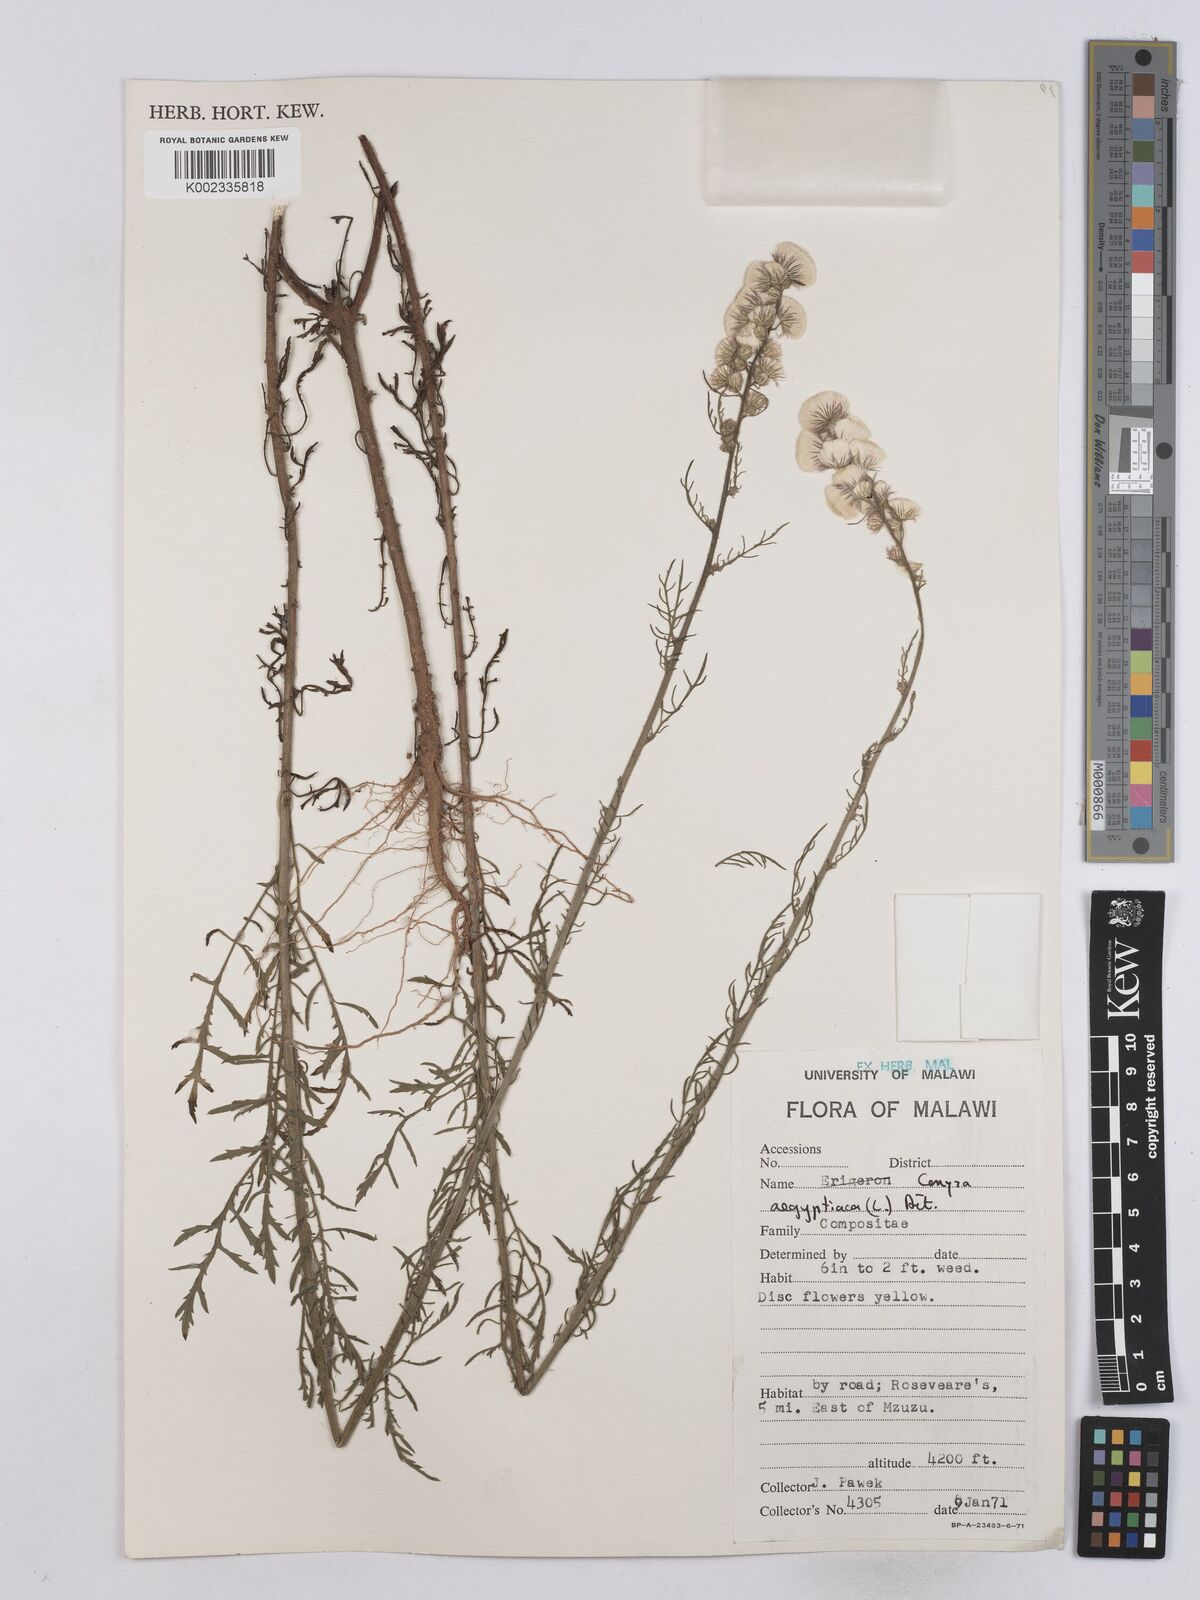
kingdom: Plantae
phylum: Tracheophyta
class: Magnoliopsida
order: Asterales
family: Asteraceae
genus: Nidorella
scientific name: Nidorella aegyptiaca
